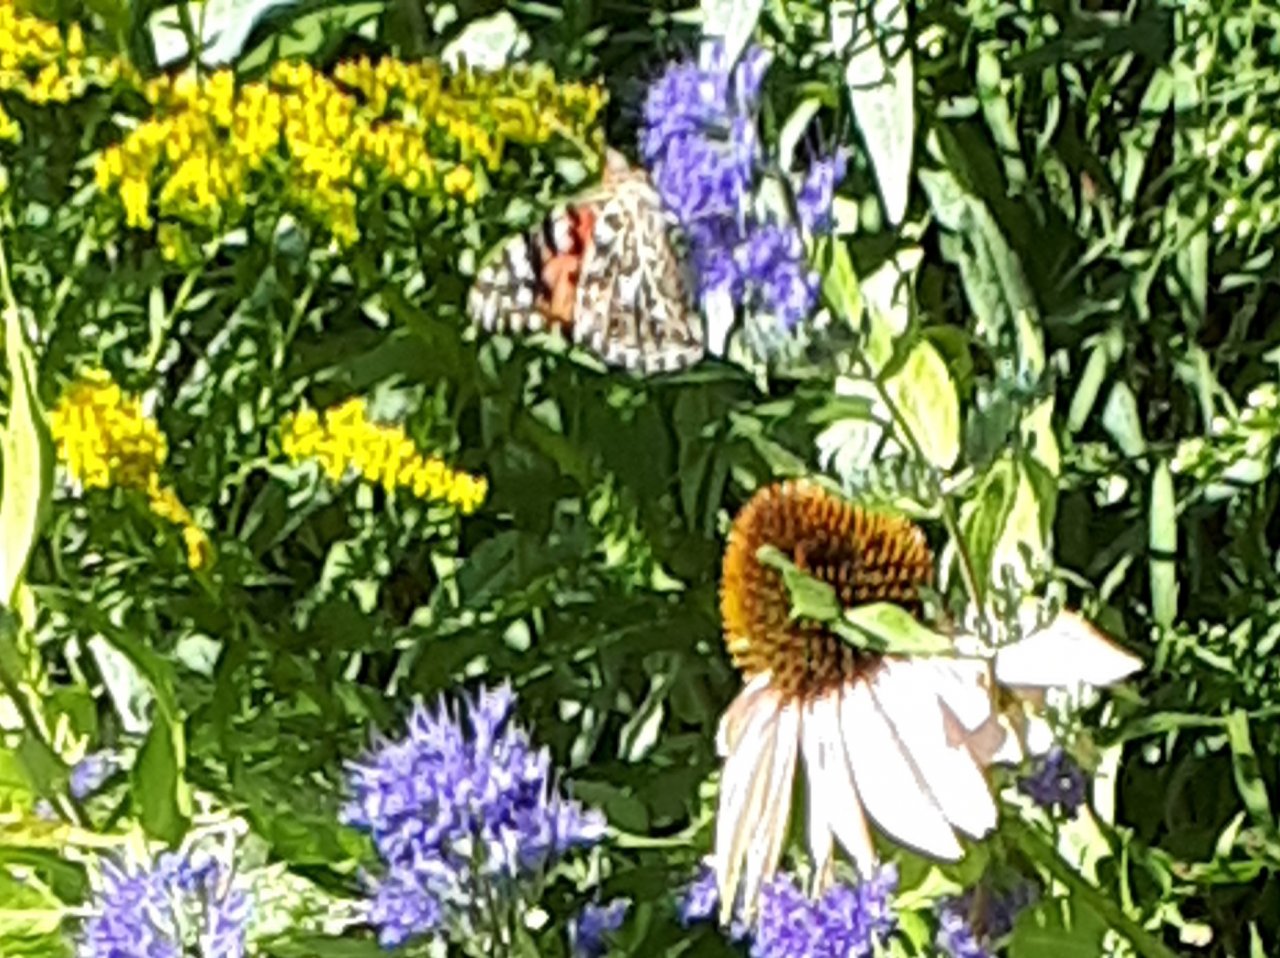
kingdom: Animalia
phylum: Arthropoda
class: Insecta
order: Lepidoptera
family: Nymphalidae
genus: Vanessa
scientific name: Vanessa cardui
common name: Painted Lady
